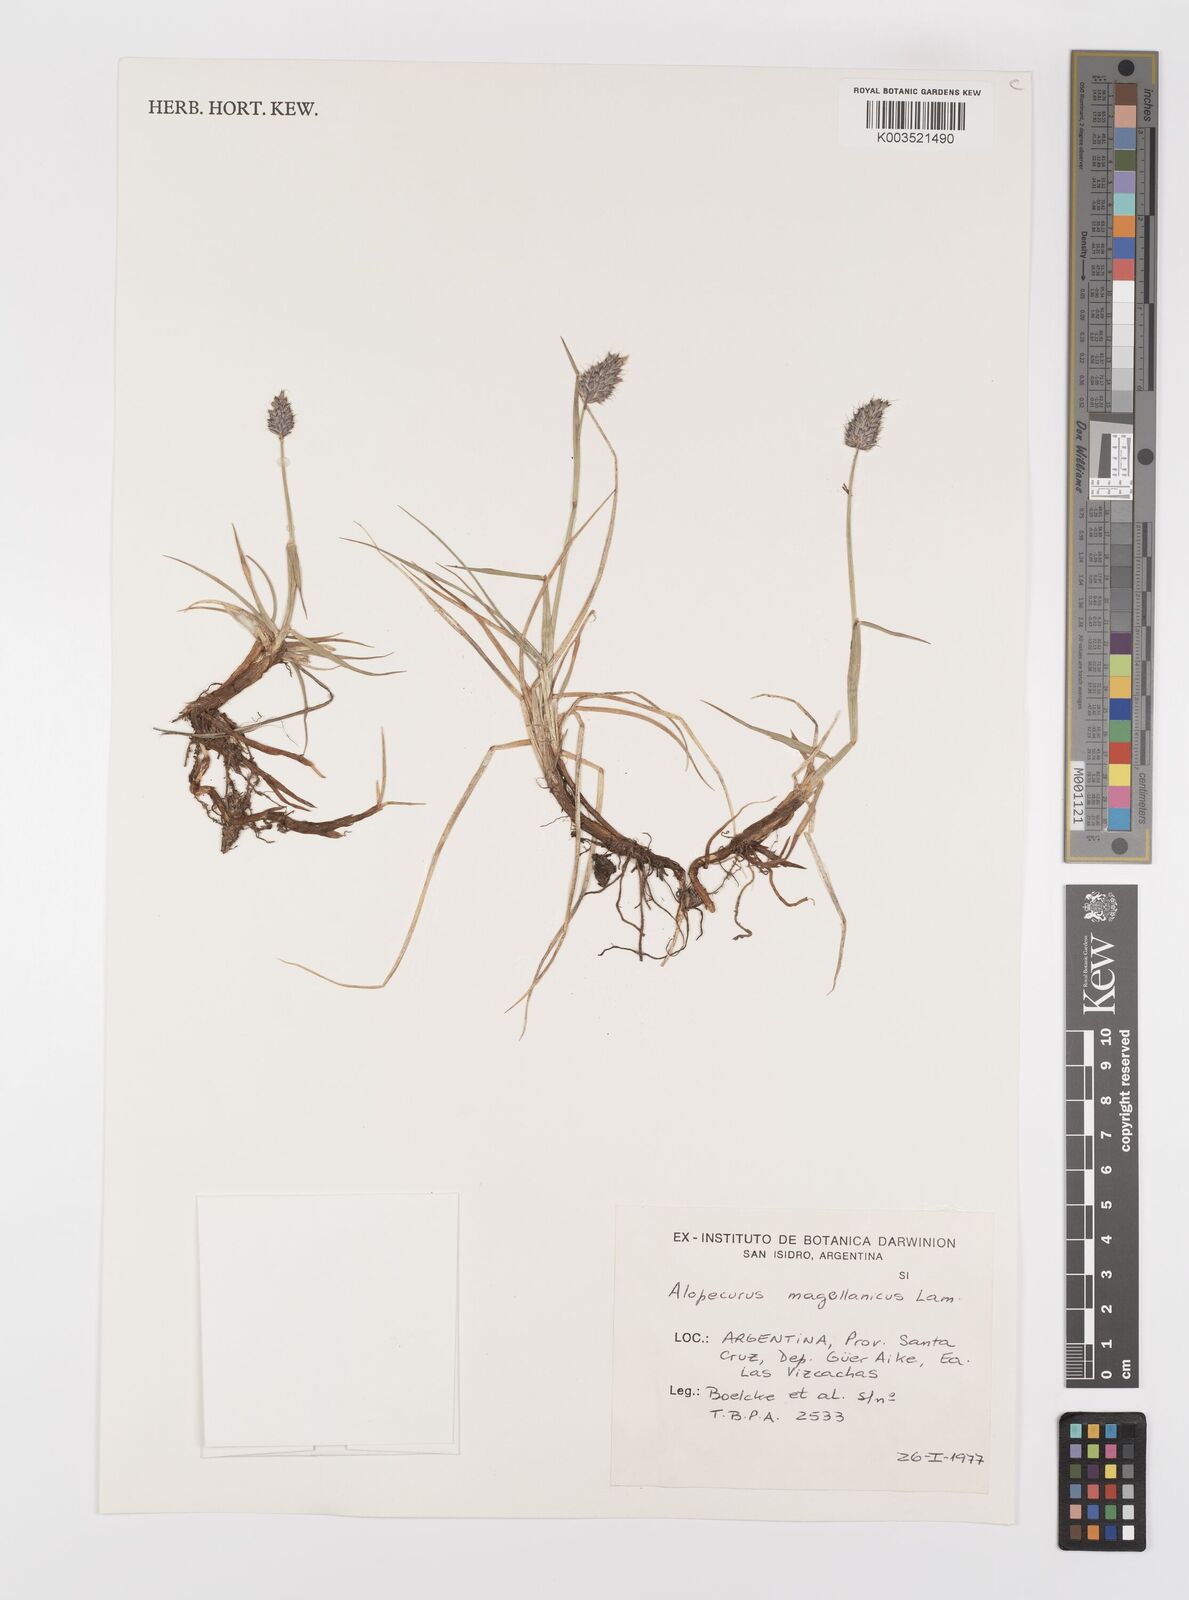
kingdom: Plantae
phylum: Tracheophyta
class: Liliopsida
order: Poales
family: Poaceae
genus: Alopecurus
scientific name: Alopecurus magellanicus
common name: Alpine foxtail
